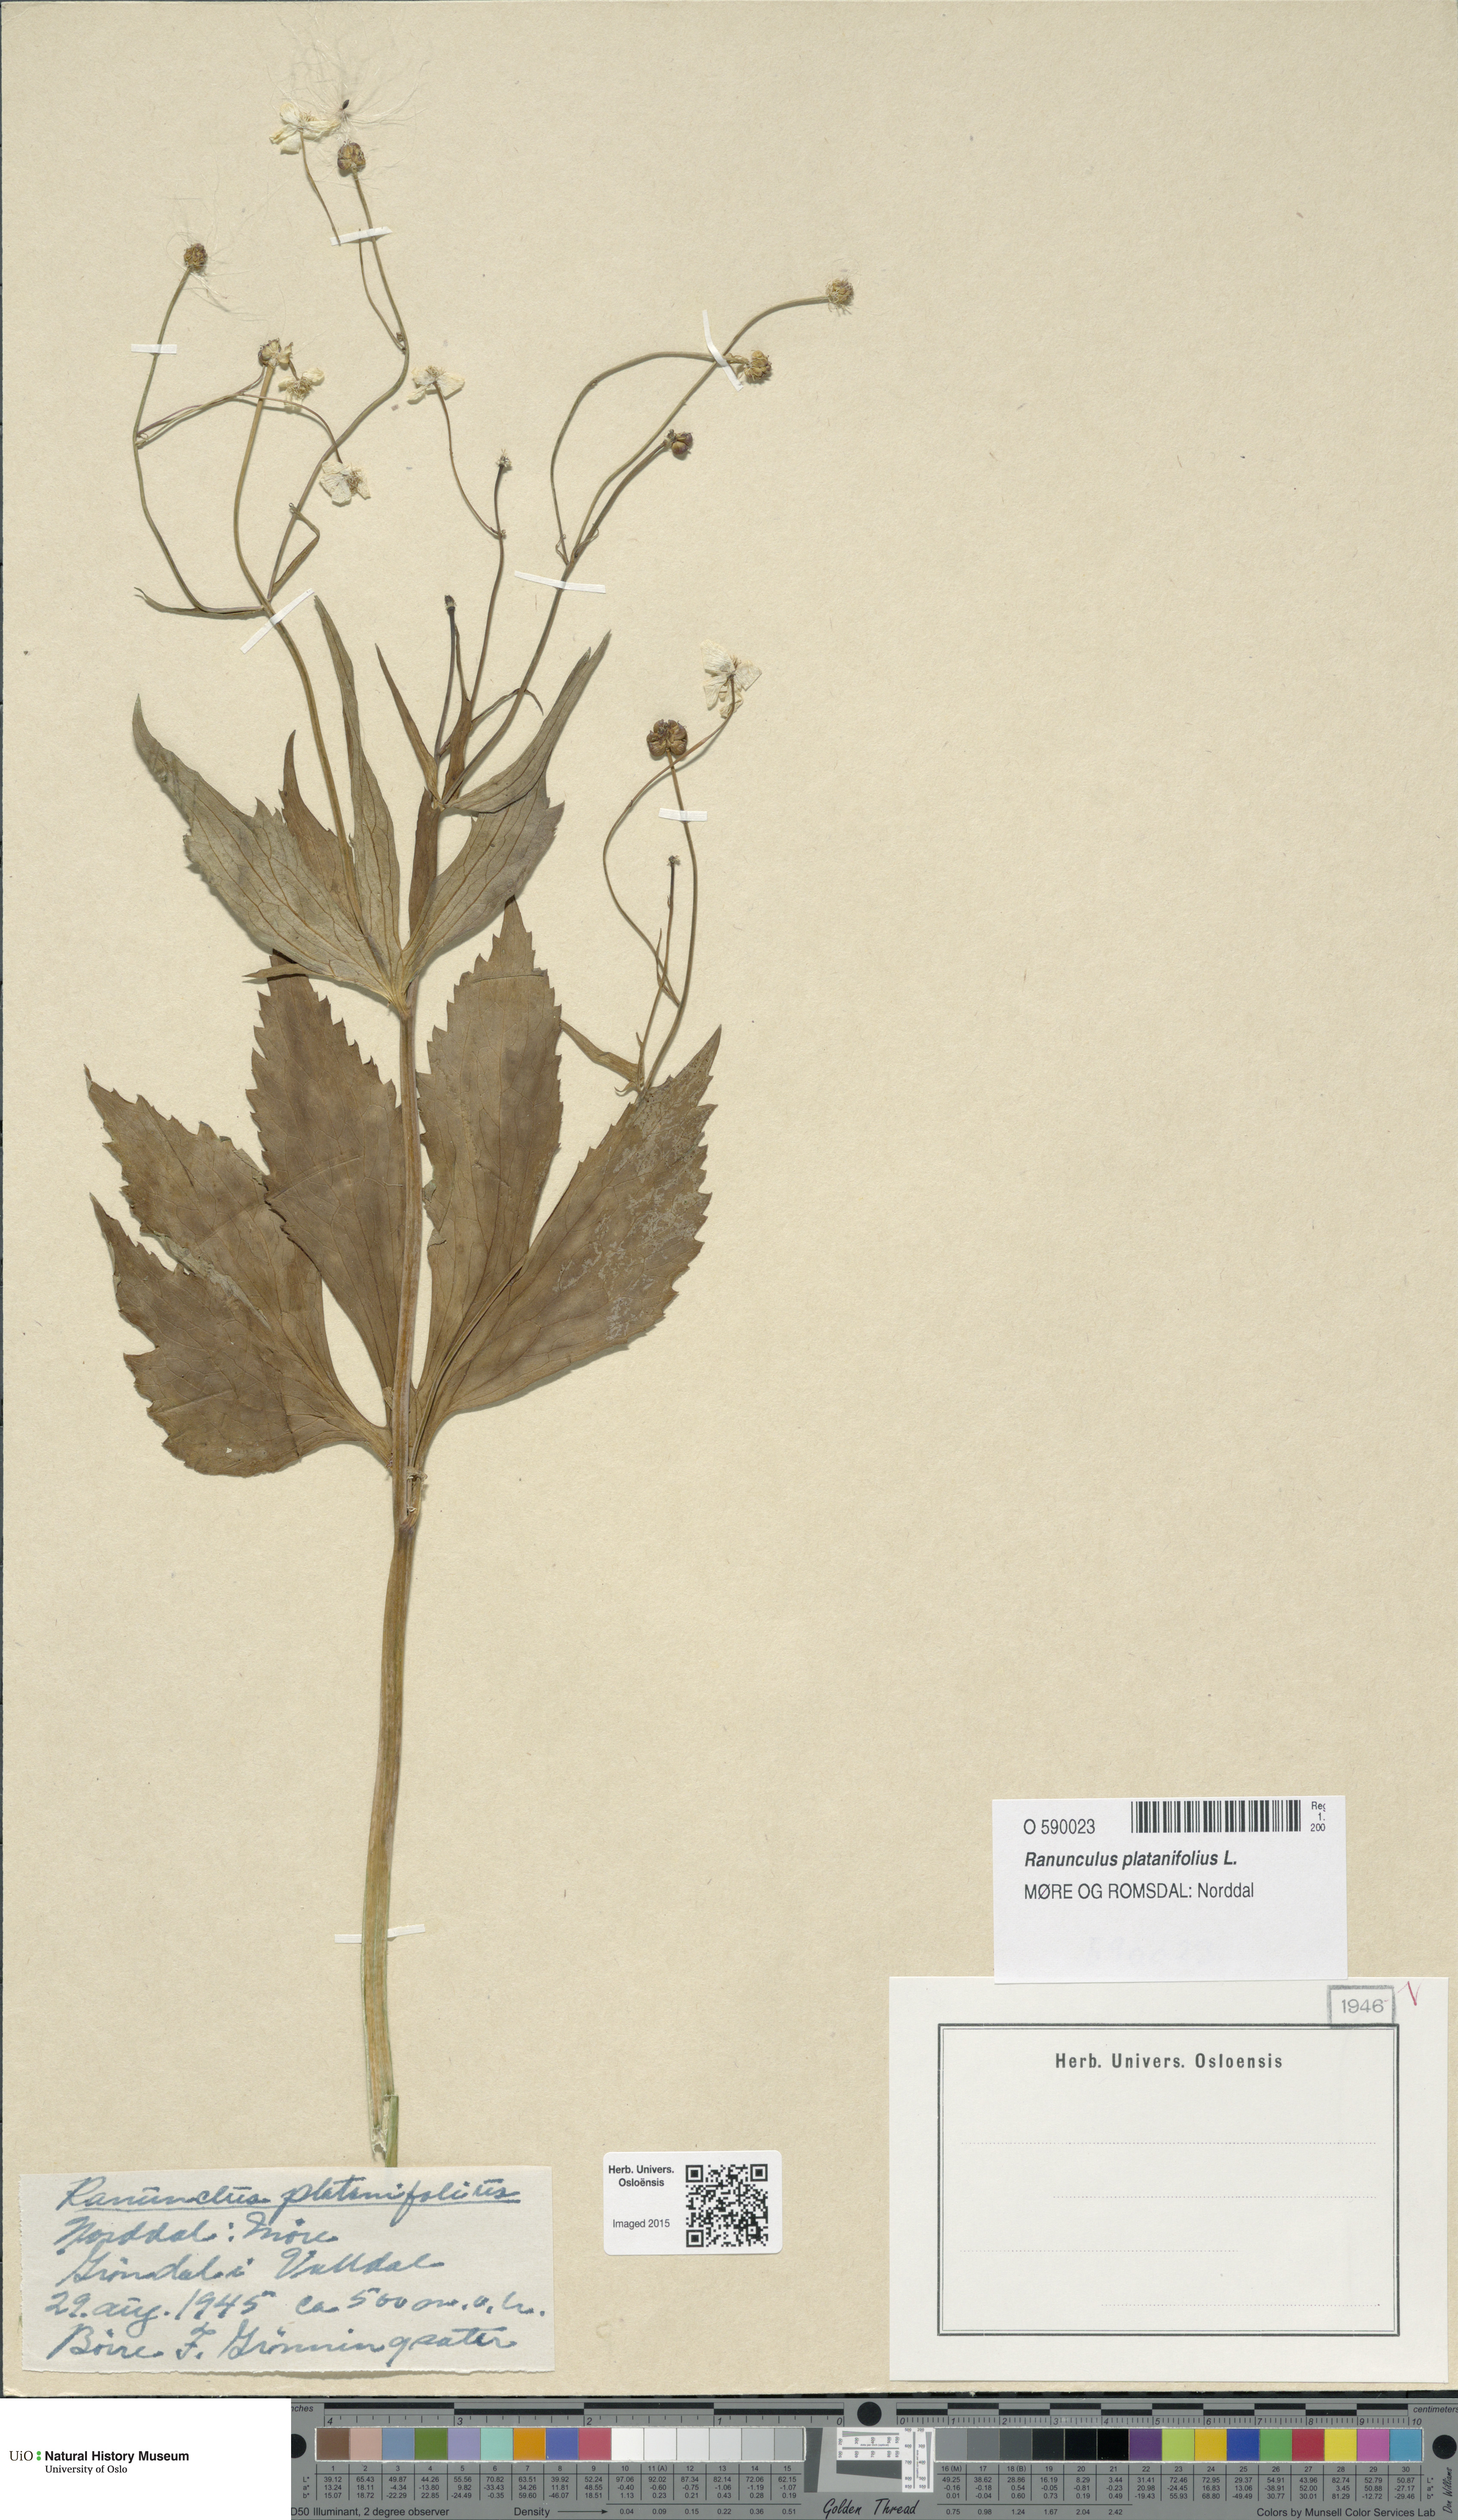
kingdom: Plantae
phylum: Tracheophyta
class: Magnoliopsida
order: Ranunculales
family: Ranunculaceae
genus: Ranunculus
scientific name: Ranunculus platanifolius
